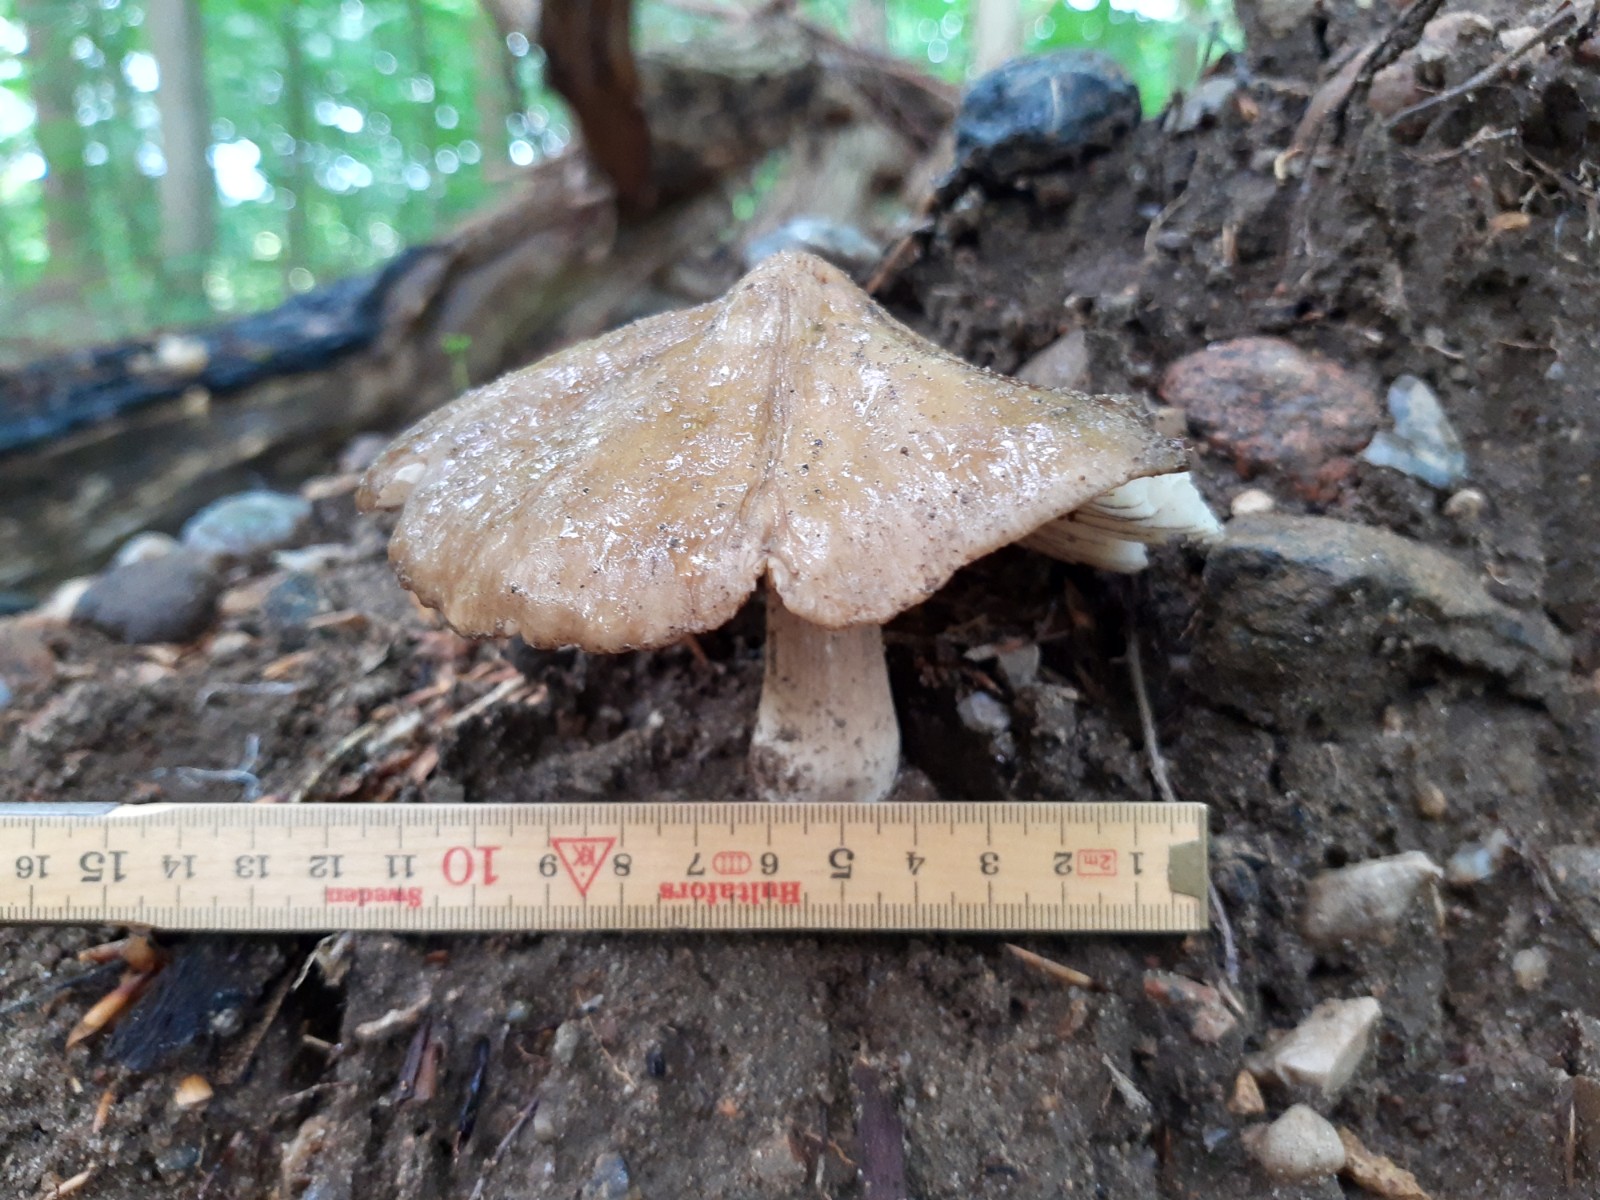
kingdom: Fungi
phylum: Basidiomycota
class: Agaricomycetes
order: Agaricales
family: Physalacriaceae
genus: Hymenopellis
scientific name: Hymenopellis radicata
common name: almindelig pælerodshat
